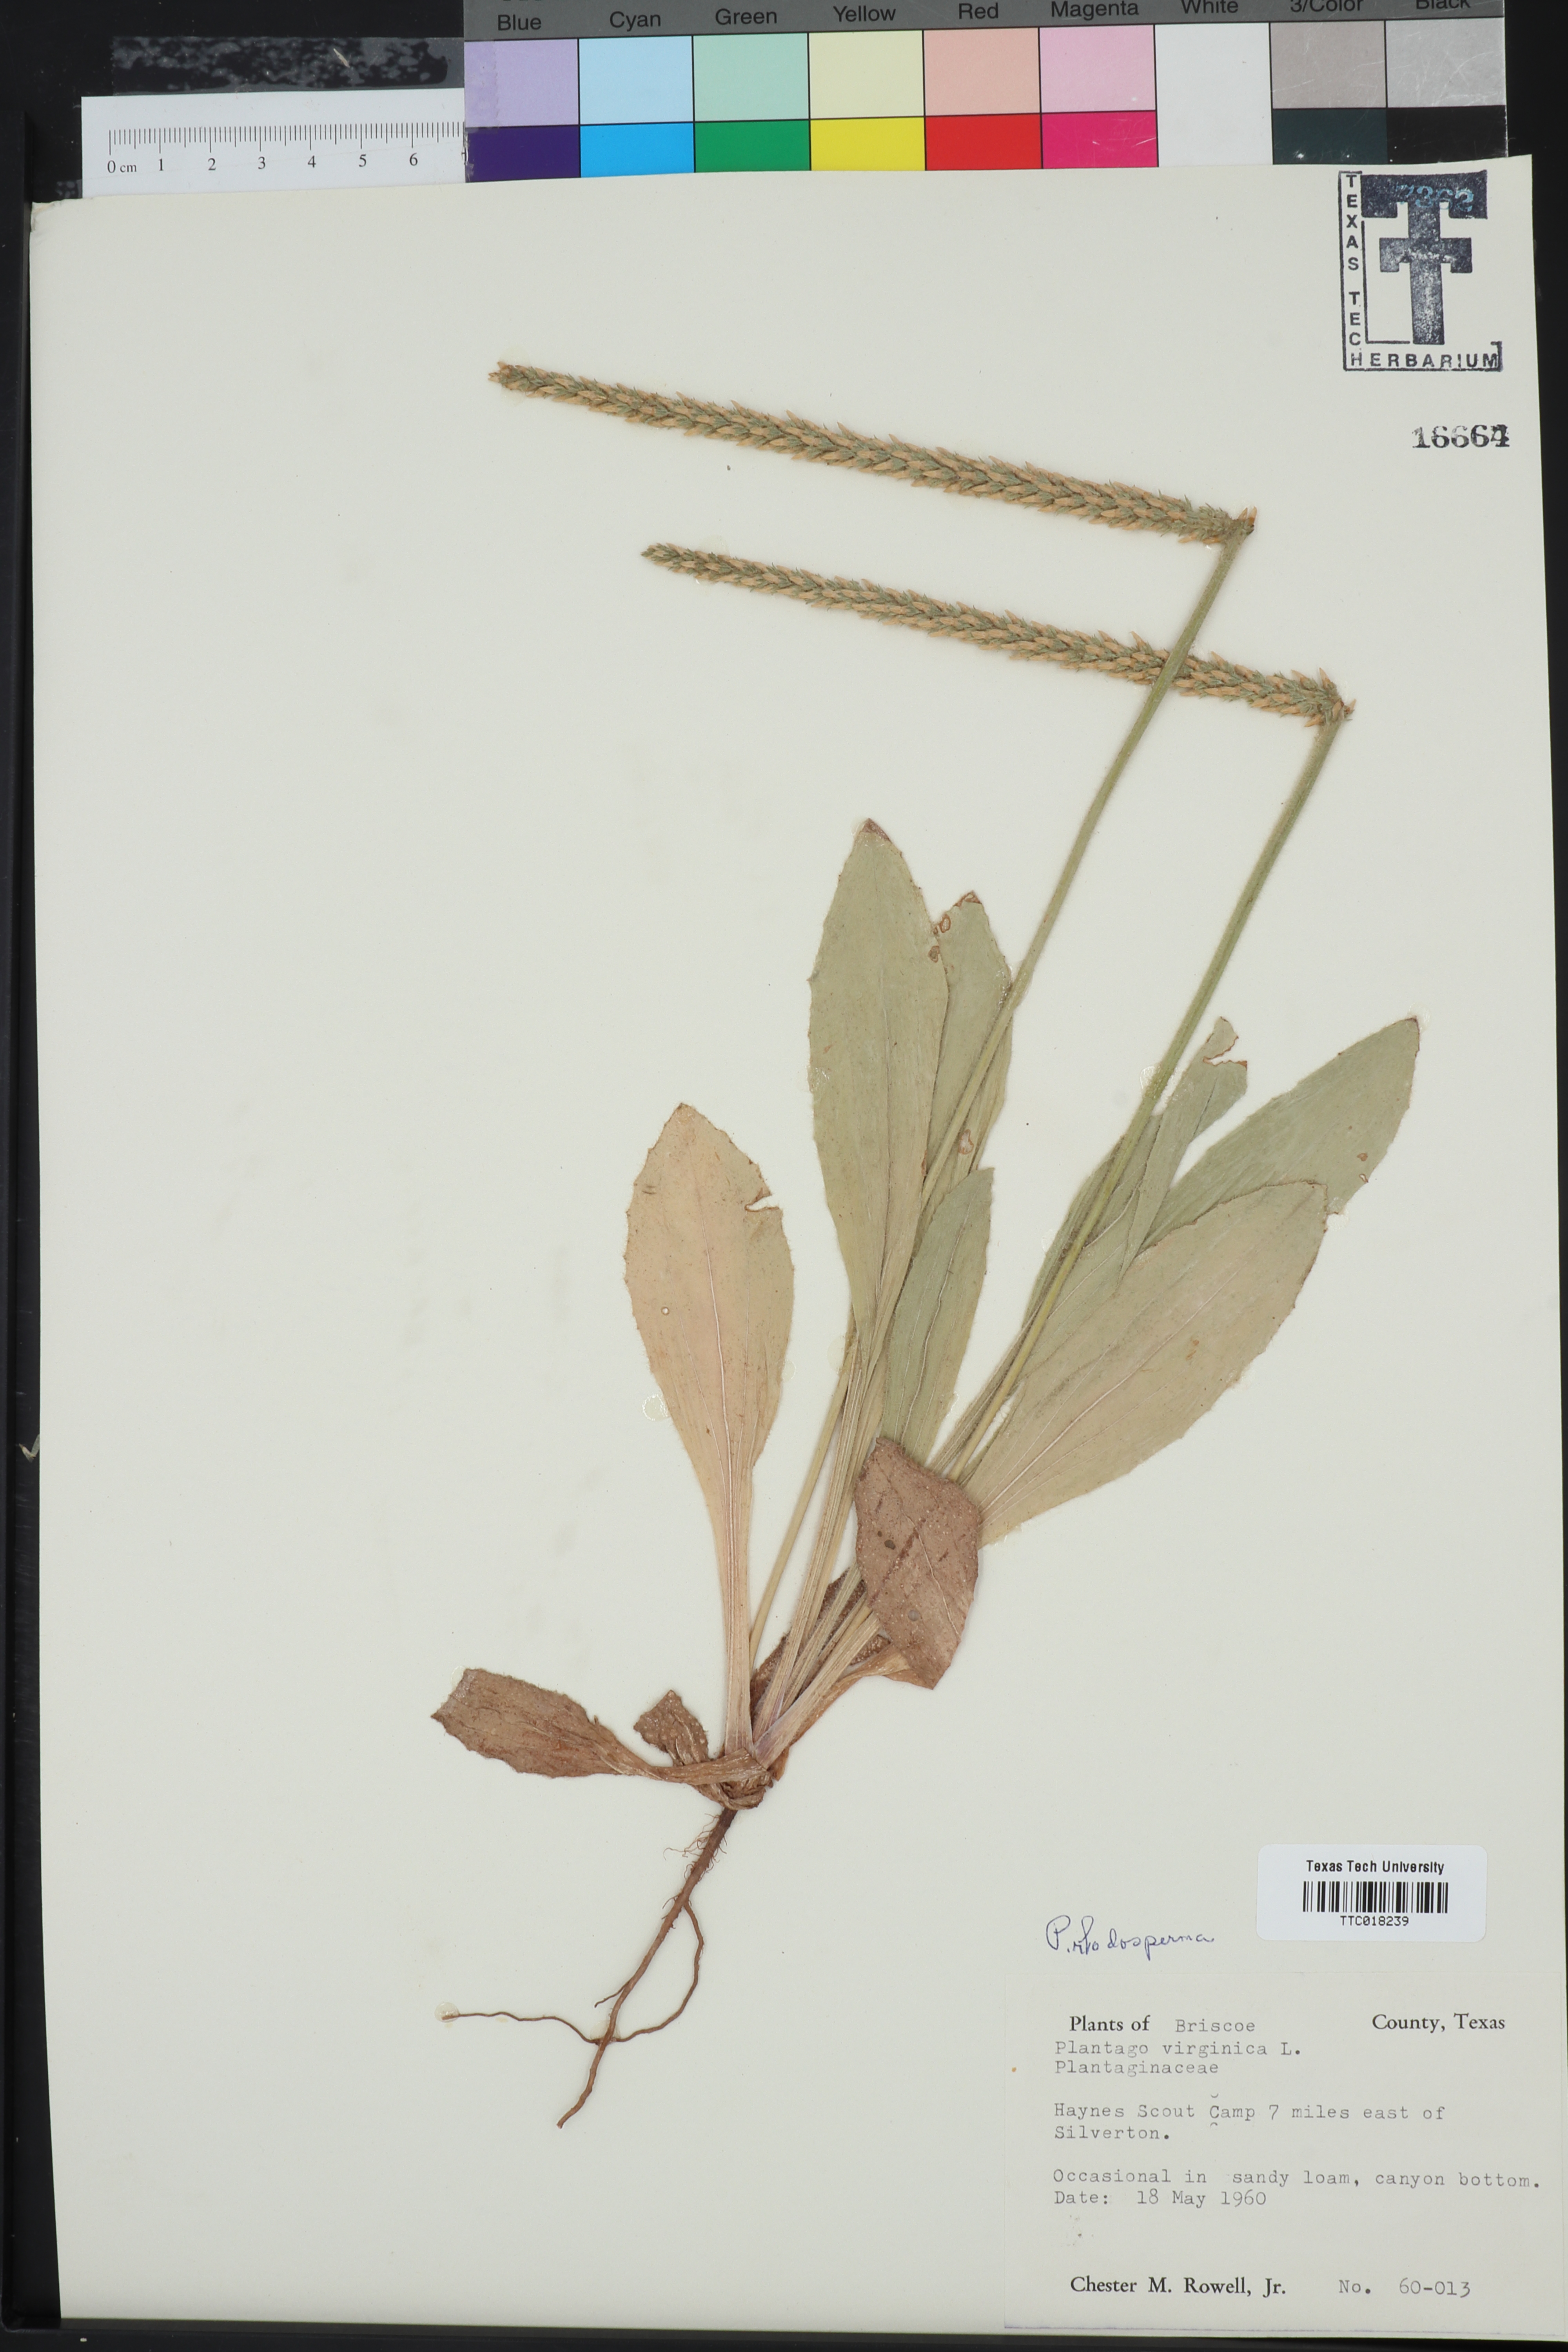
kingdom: Plantae
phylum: Tracheophyta
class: Magnoliopsida
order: Lamiales
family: Plantaginaceae
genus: Plantago
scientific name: Plantago rhodosperma
